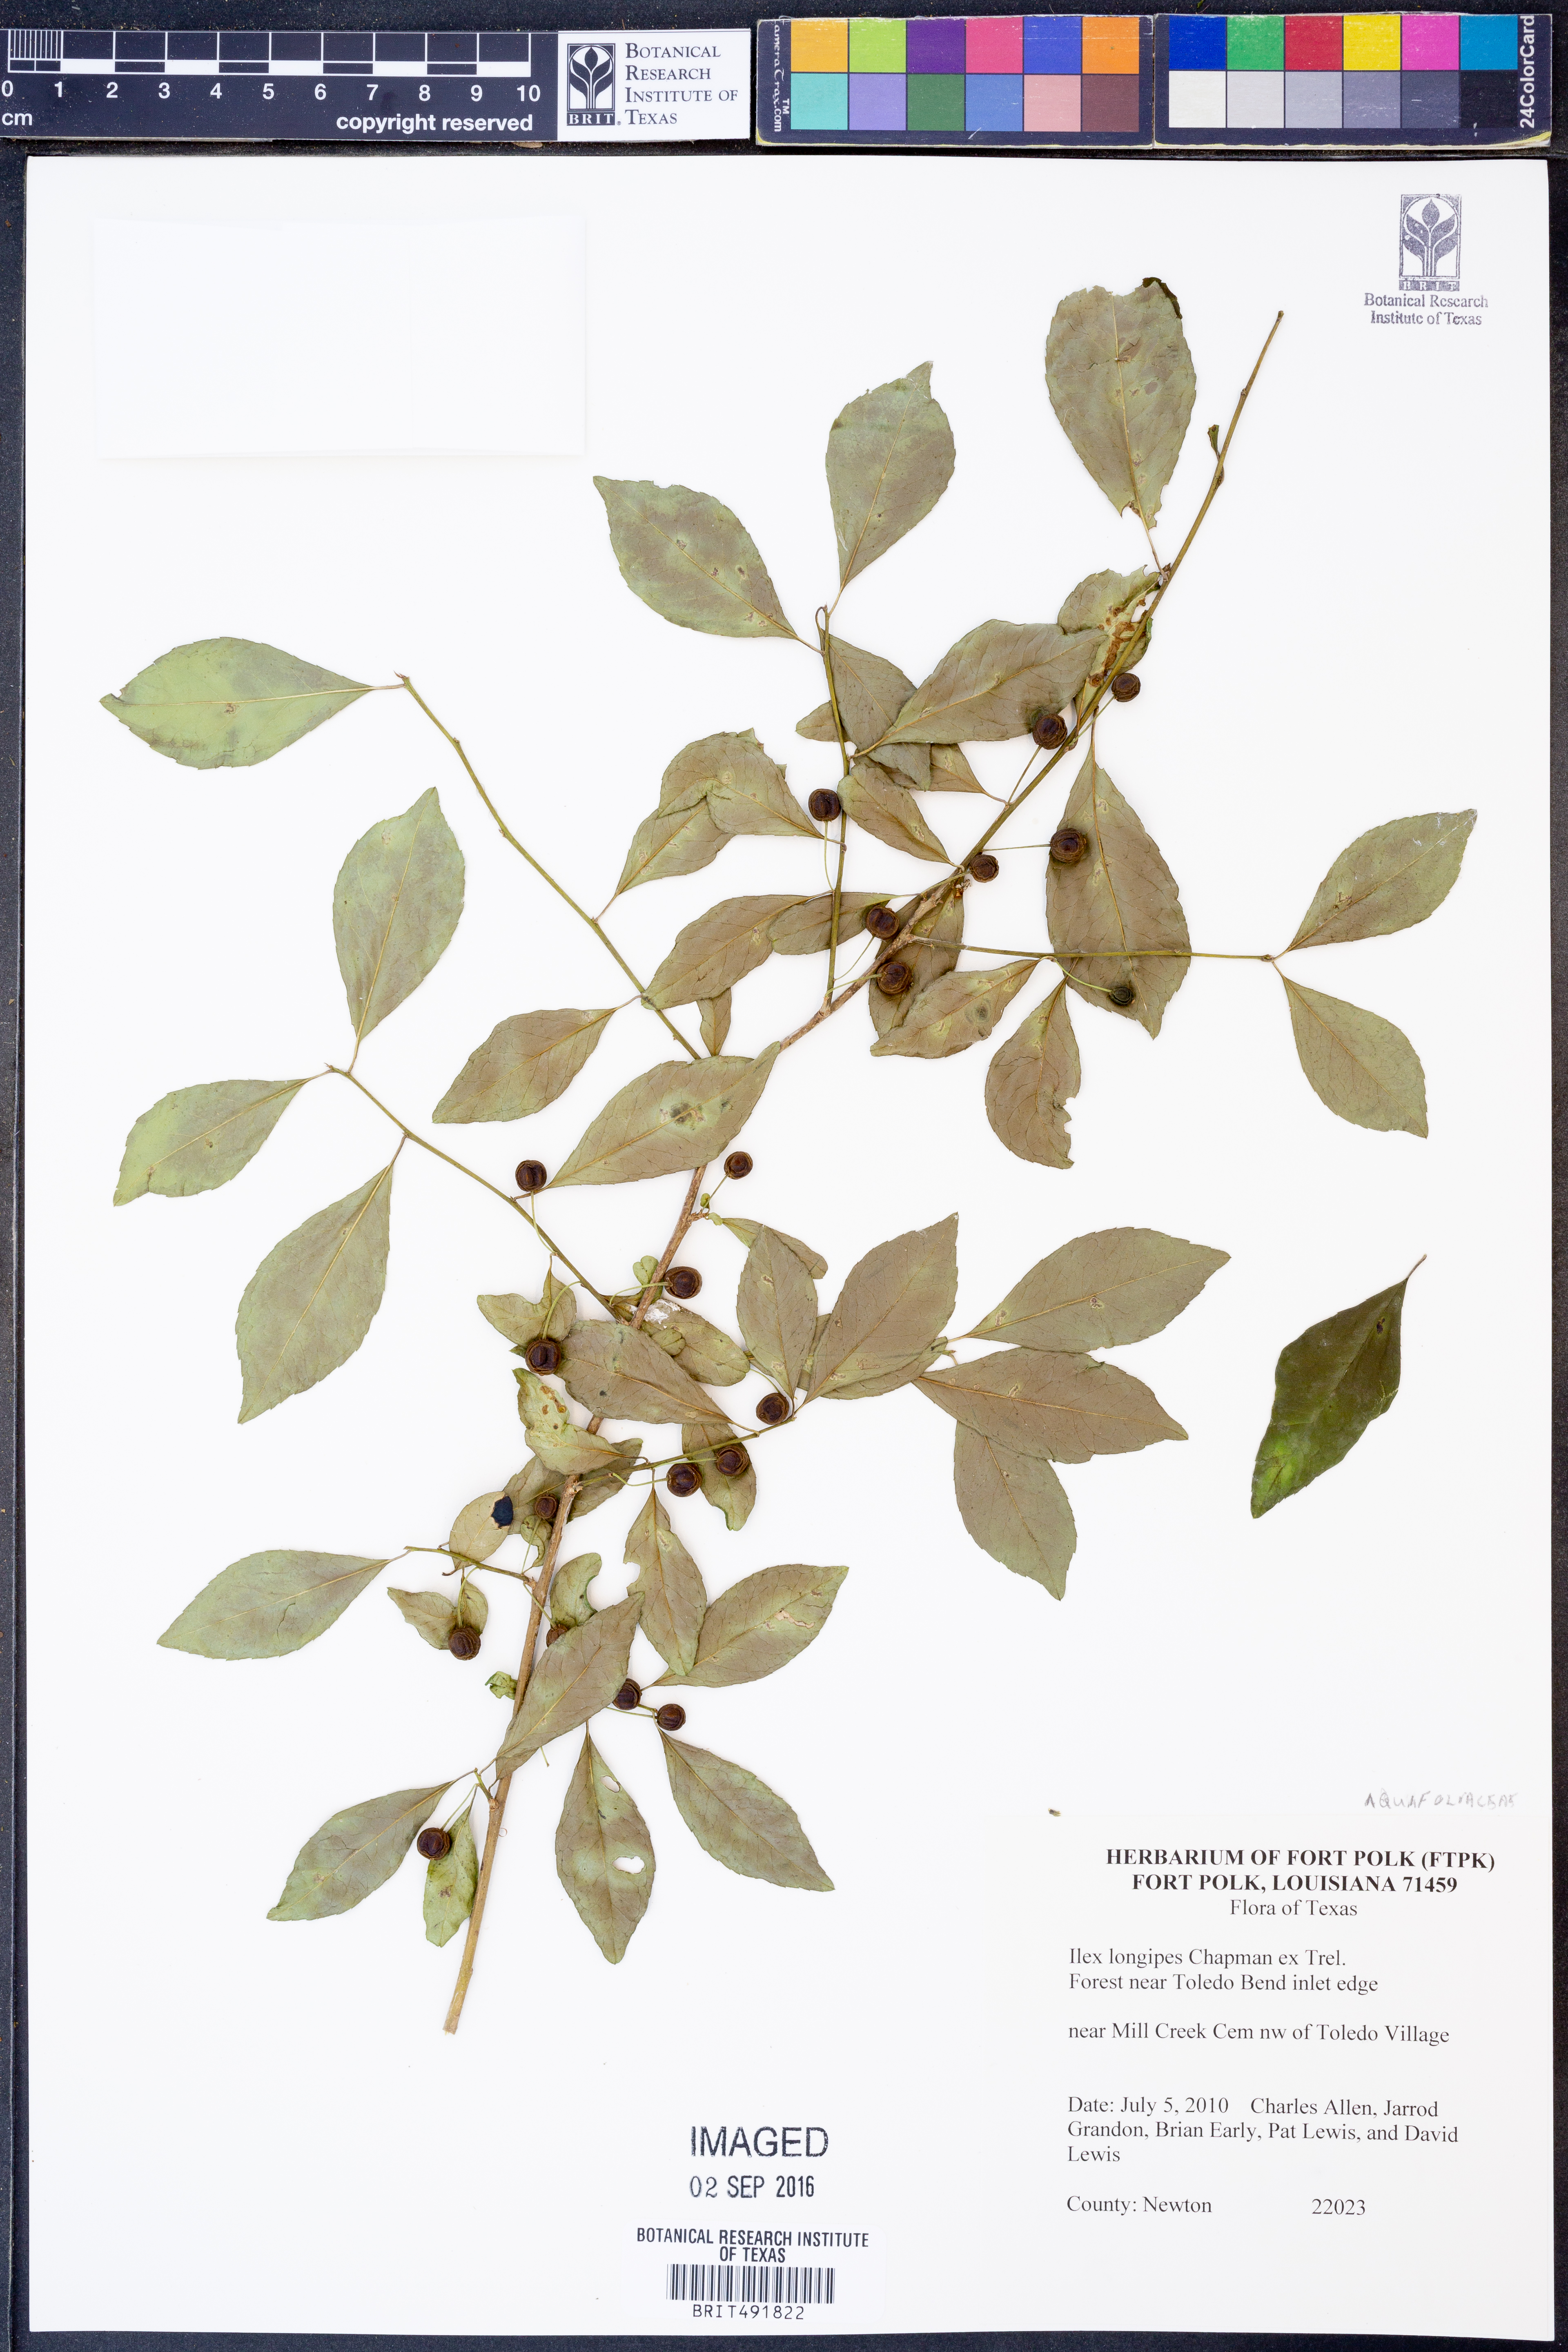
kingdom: Plantae
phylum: Tracheophyta
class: Magnoliopsida
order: Aquifoliales
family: Aquifoliaceae
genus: Ilex
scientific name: Ilex longipes
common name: Georgia holly
